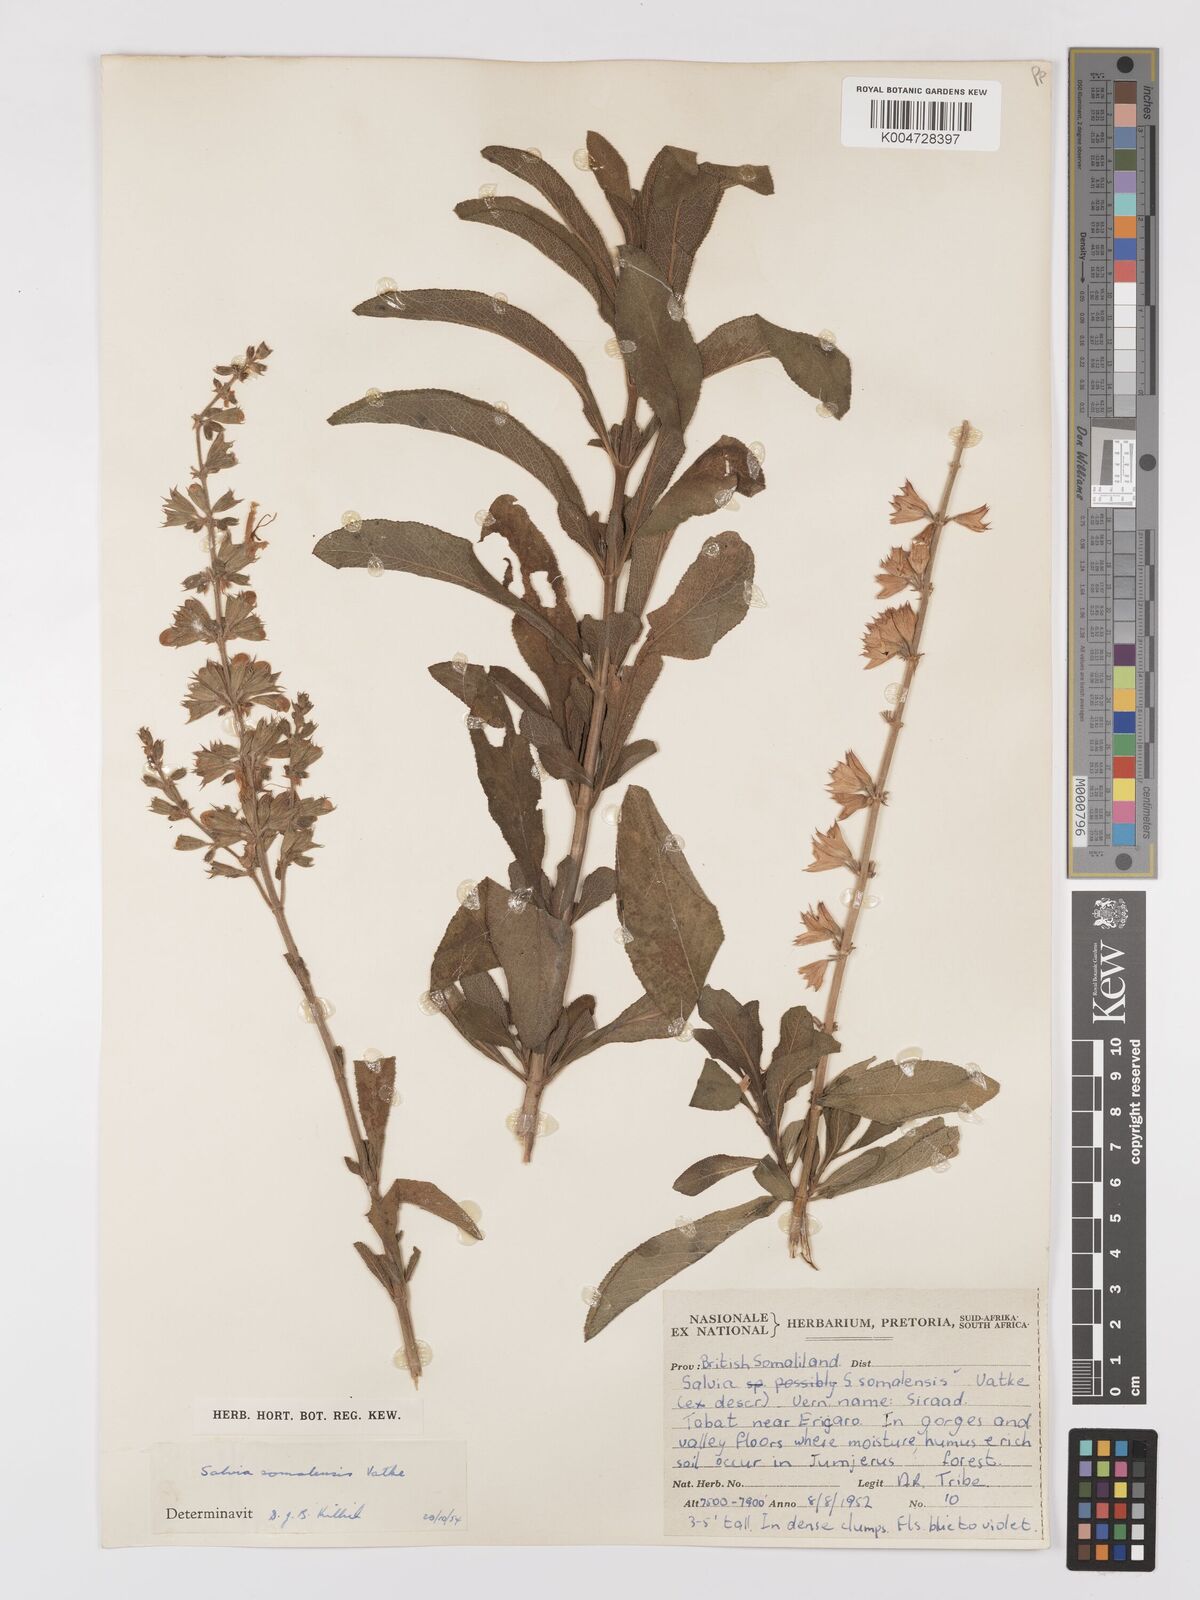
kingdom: Plantae
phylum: Tracheophyta
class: Magnoliopsida
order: Lamiales
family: Lamiaceae
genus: Salvia
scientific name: Salvia somalensis
